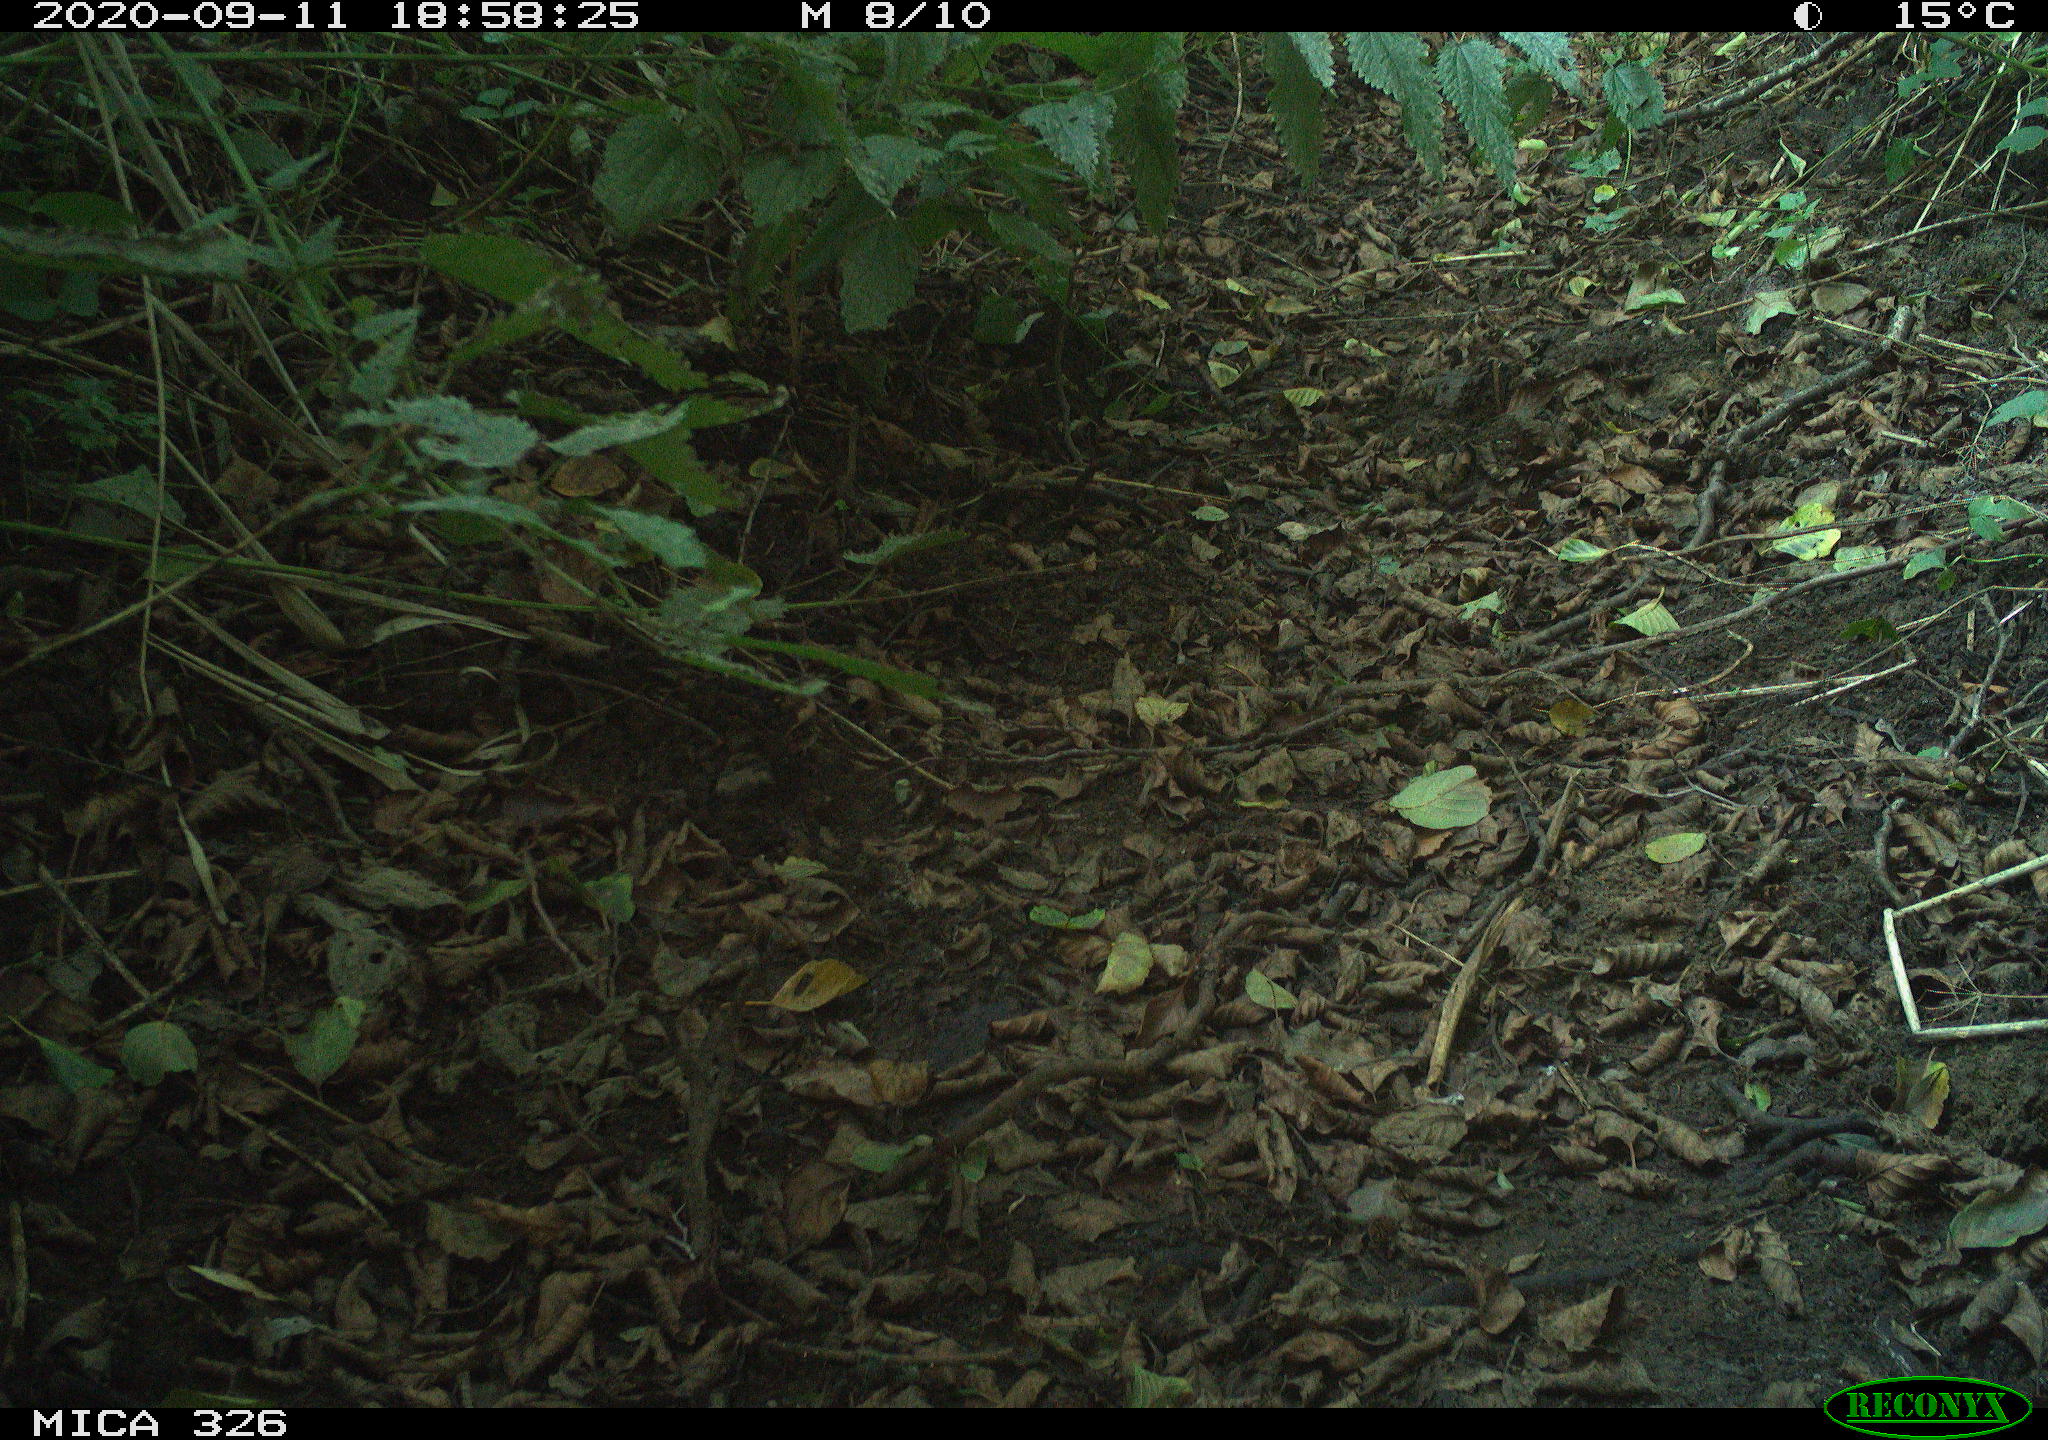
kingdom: Animalia
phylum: Chordata
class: Aves
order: Passeriformes
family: Turdidae
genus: Turdus
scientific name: Turdus merula
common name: Common blackbird
